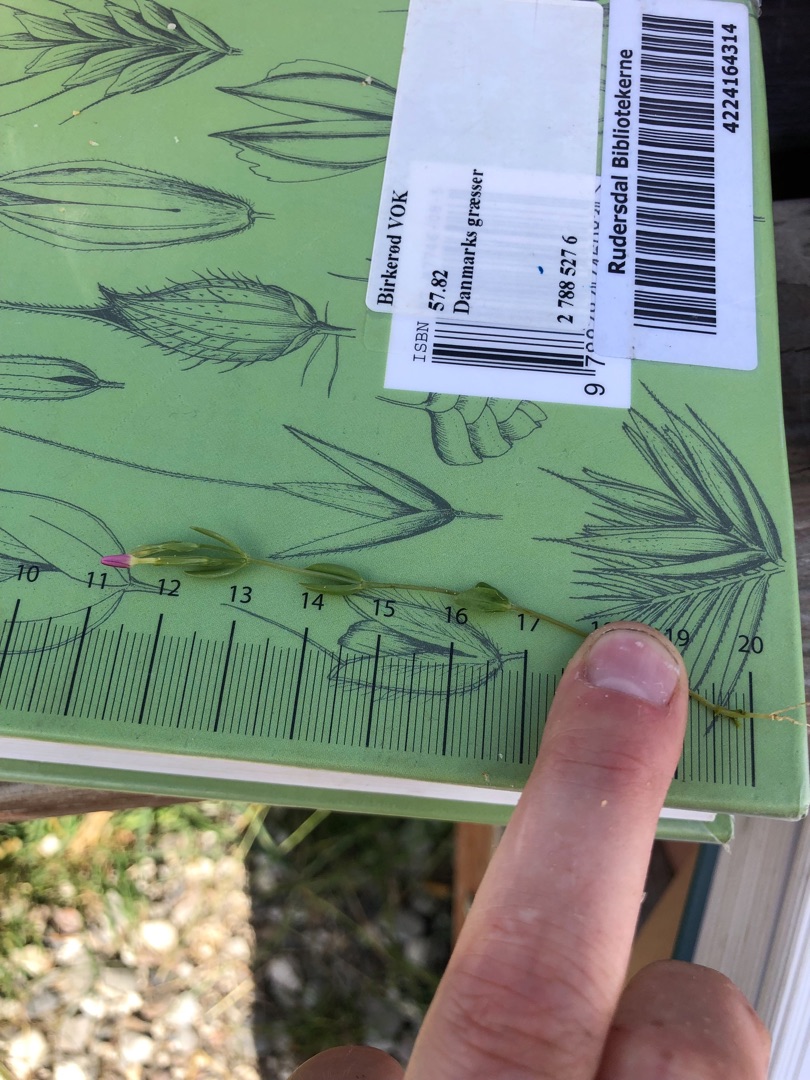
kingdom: Plantae
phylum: Tracheophyta
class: Magnoliopsida
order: Gentianales
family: Gentianaceae
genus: Centaurium
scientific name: Centaurium pulchellum
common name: Liden tusindgylden
